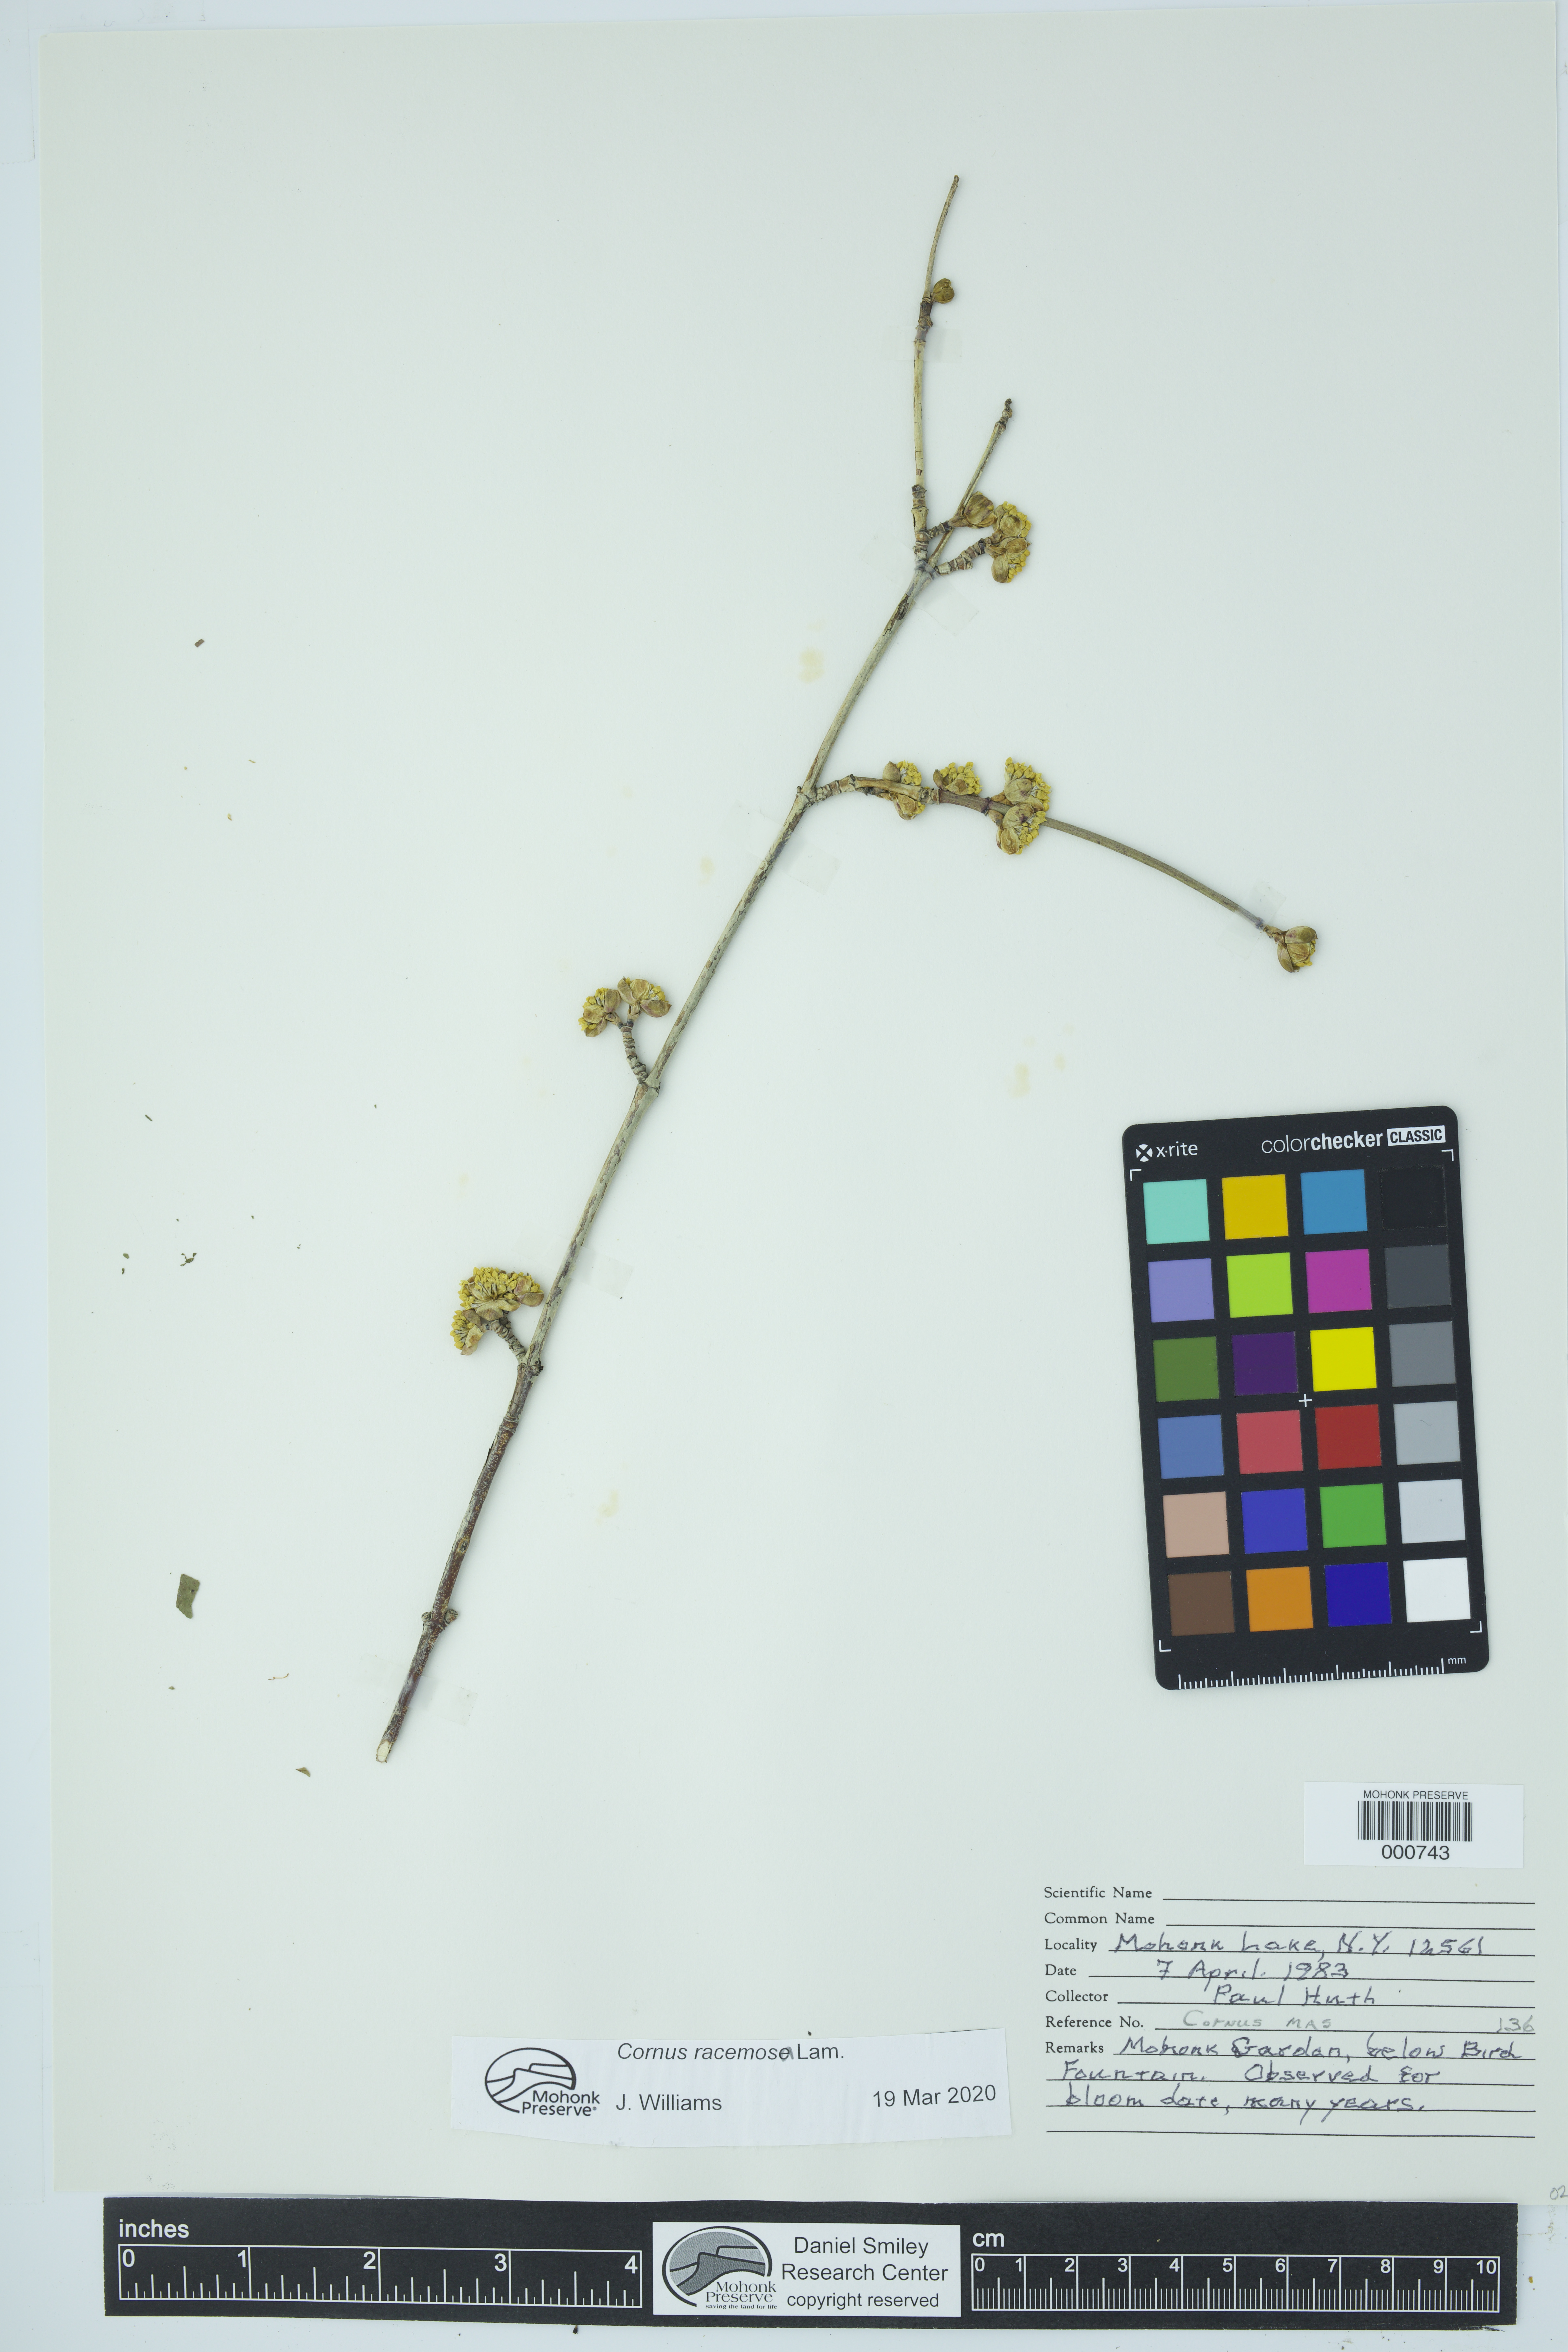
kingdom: Plantae
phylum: Tracheophyta
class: Magnoliopsida
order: Cornales
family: Cornaceae
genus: Cornus
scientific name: Cornus mas
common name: Cornelian-cherry
